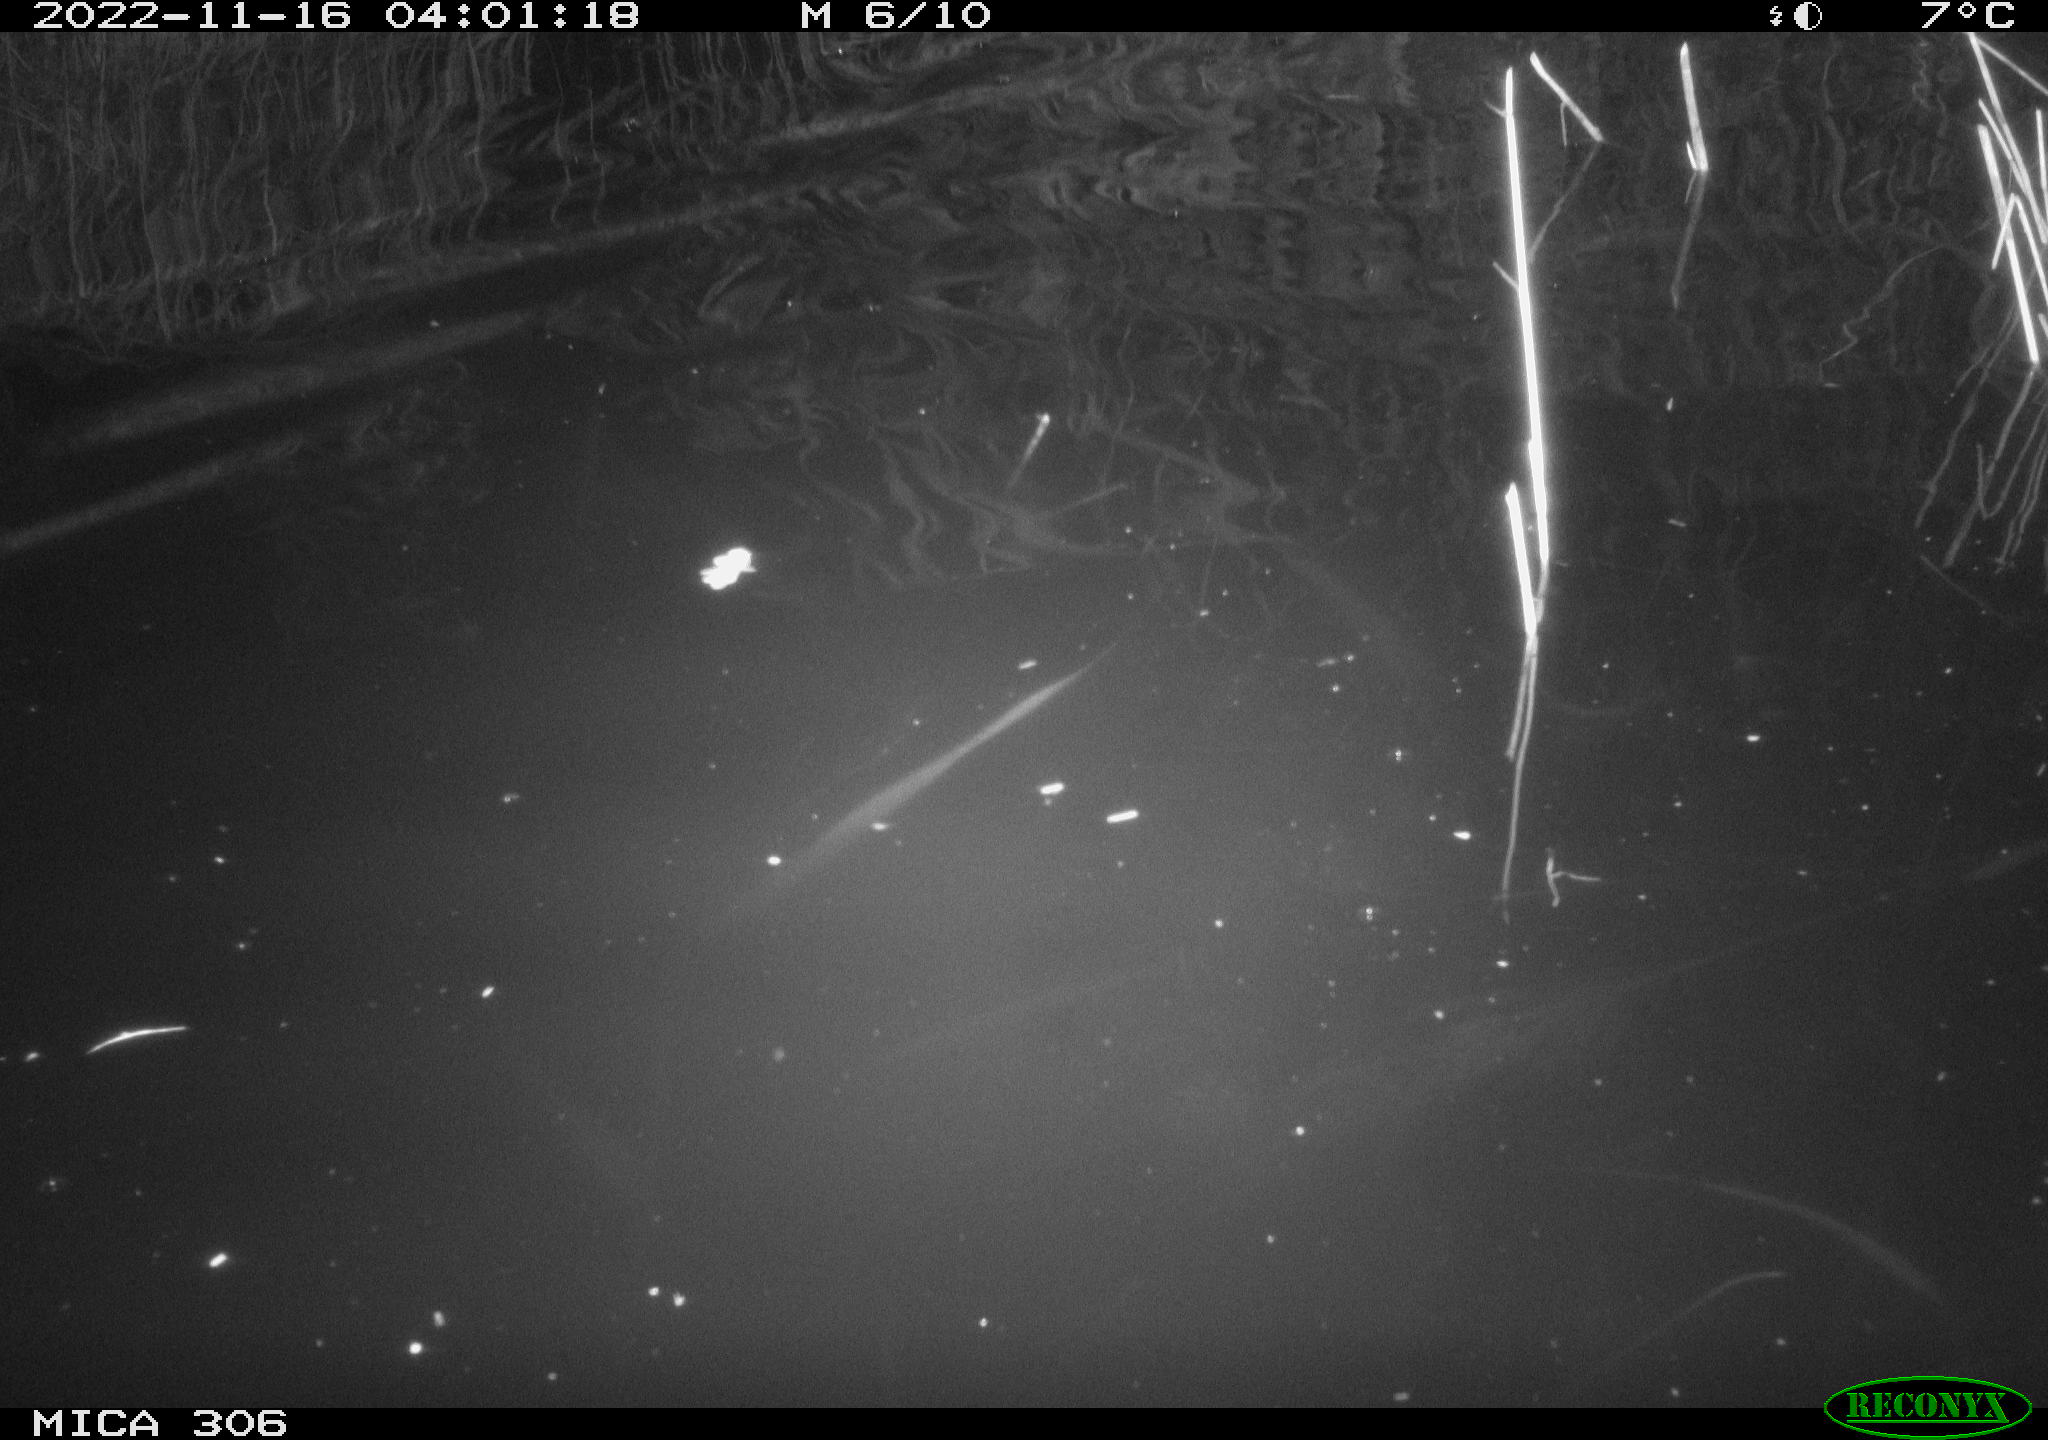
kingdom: Animalia
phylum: Chordata
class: Mammalia
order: Rodentia
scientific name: Rodentia
